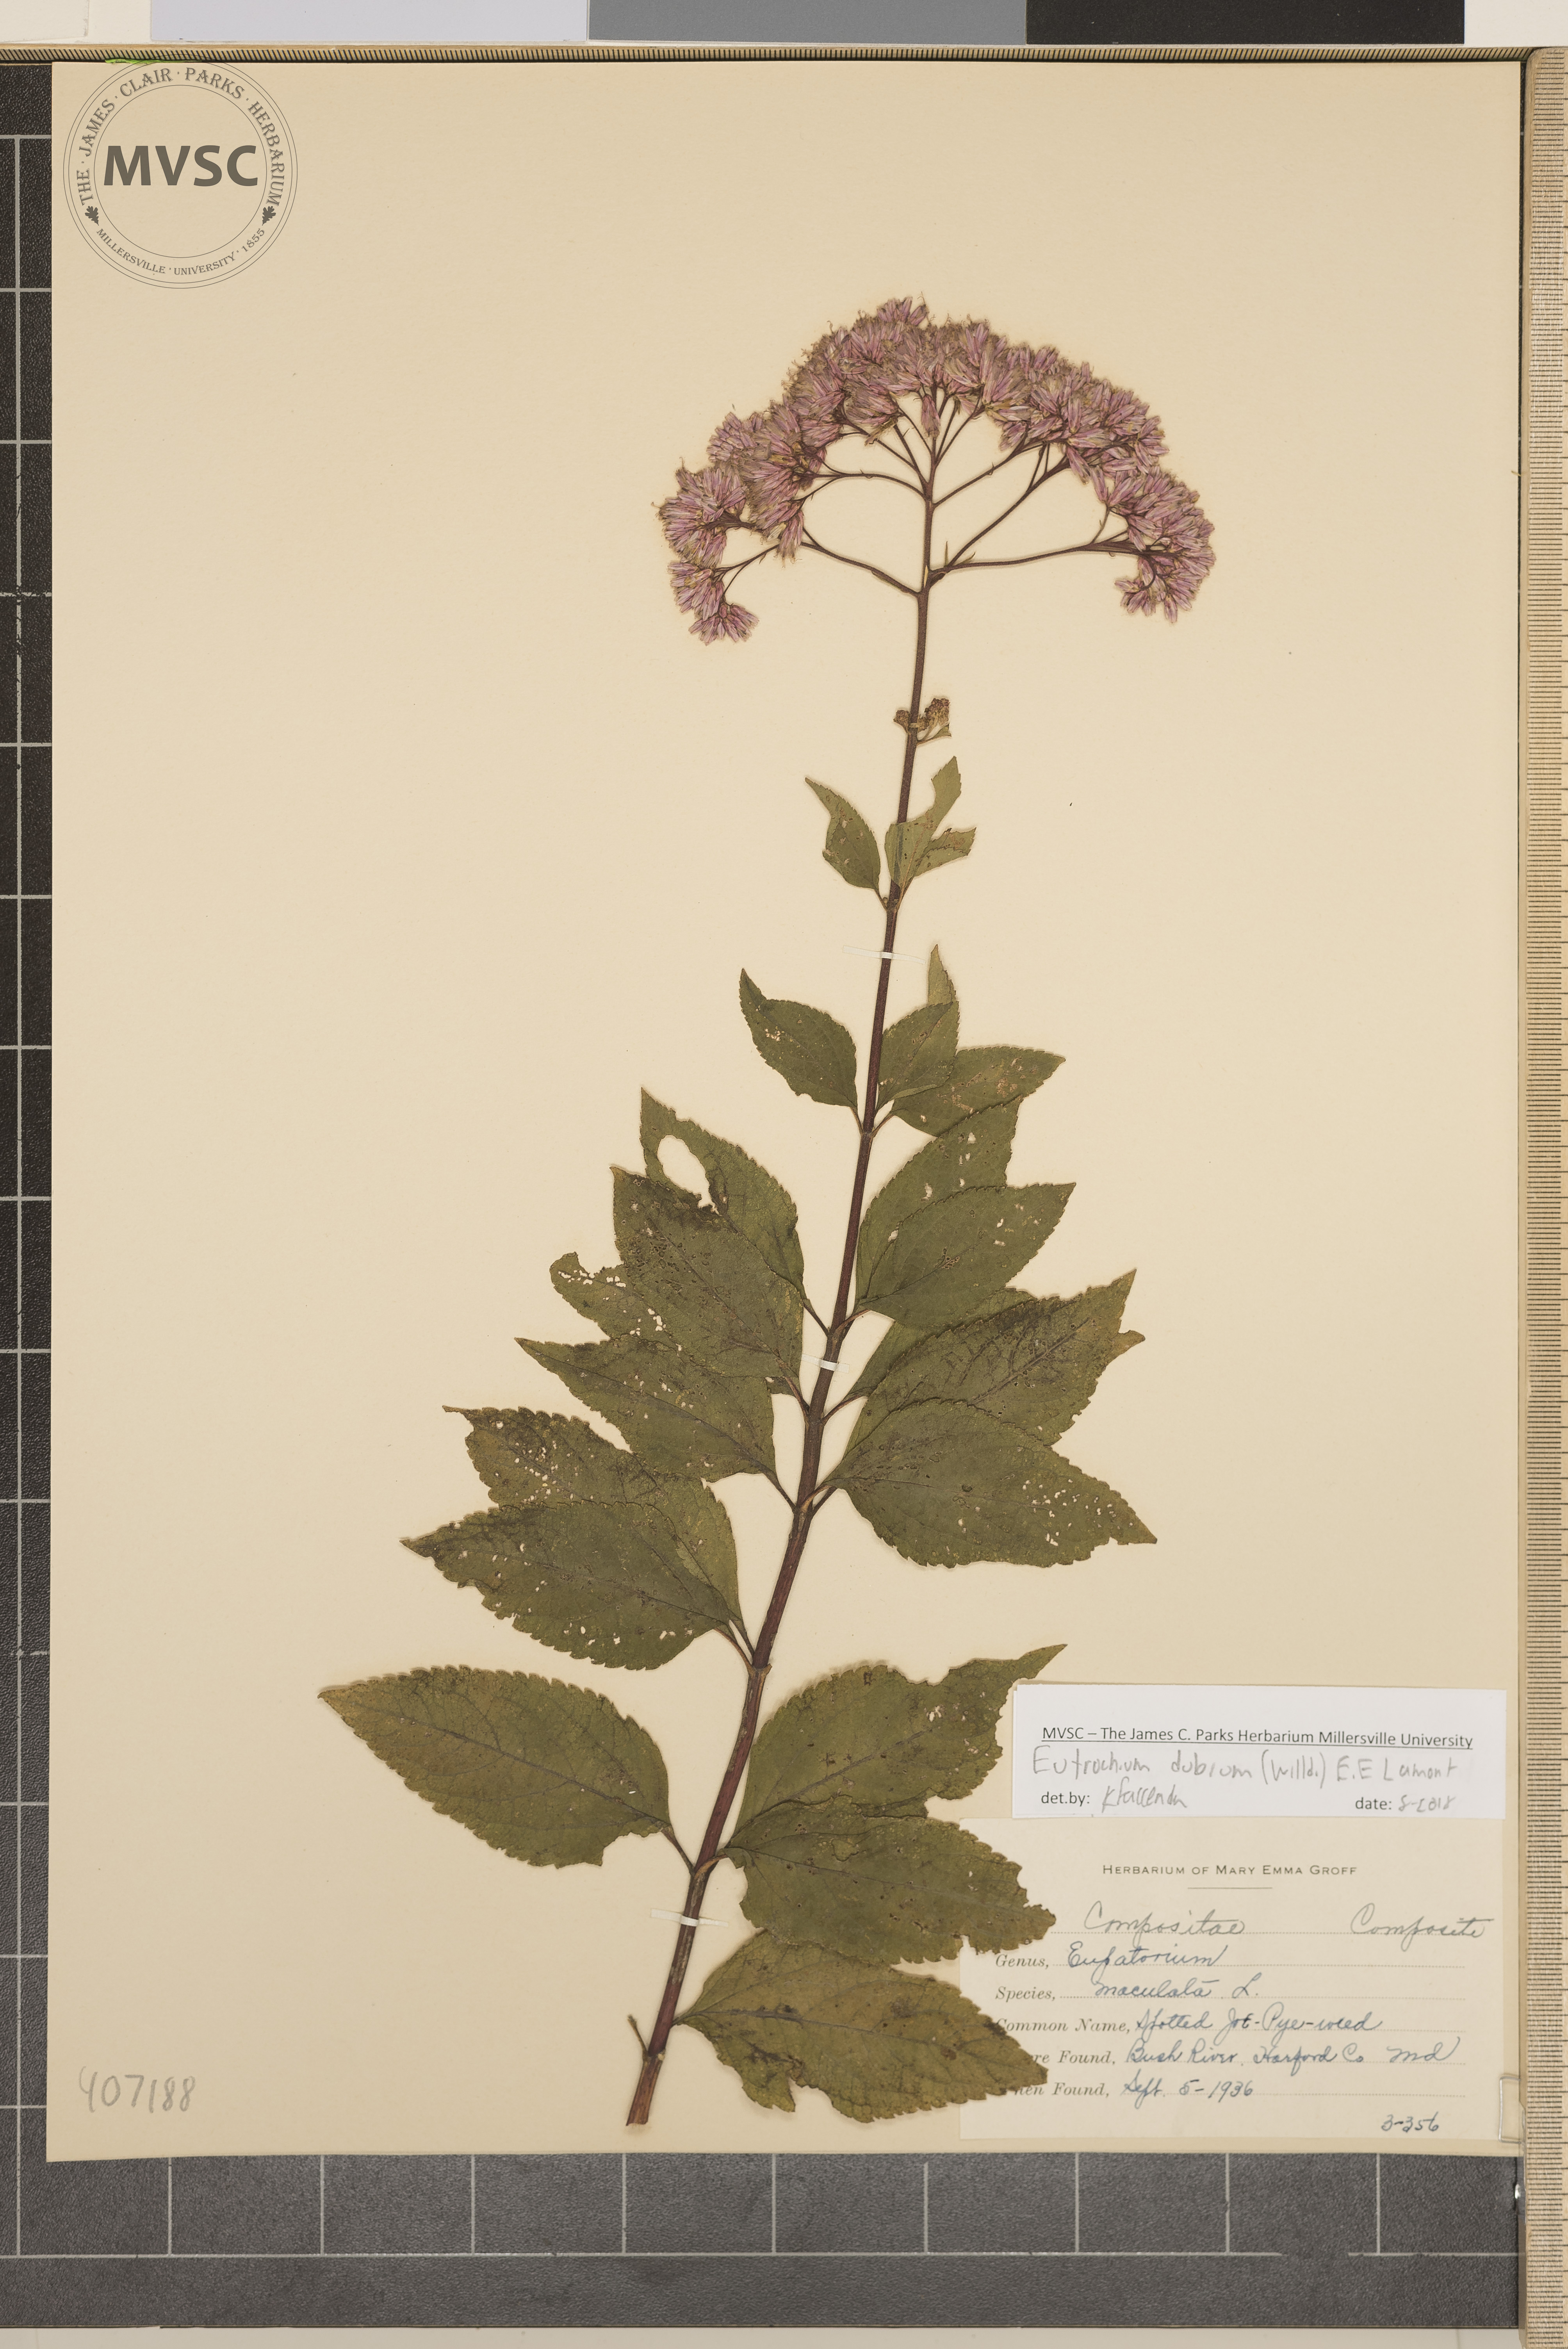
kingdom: Plantae
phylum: Tracheophyta
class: Magnoliopsida
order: Asterales
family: Asteraceae
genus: Eutrochium
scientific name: Eutrochium dubium
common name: Coastal plain joe pye weed
